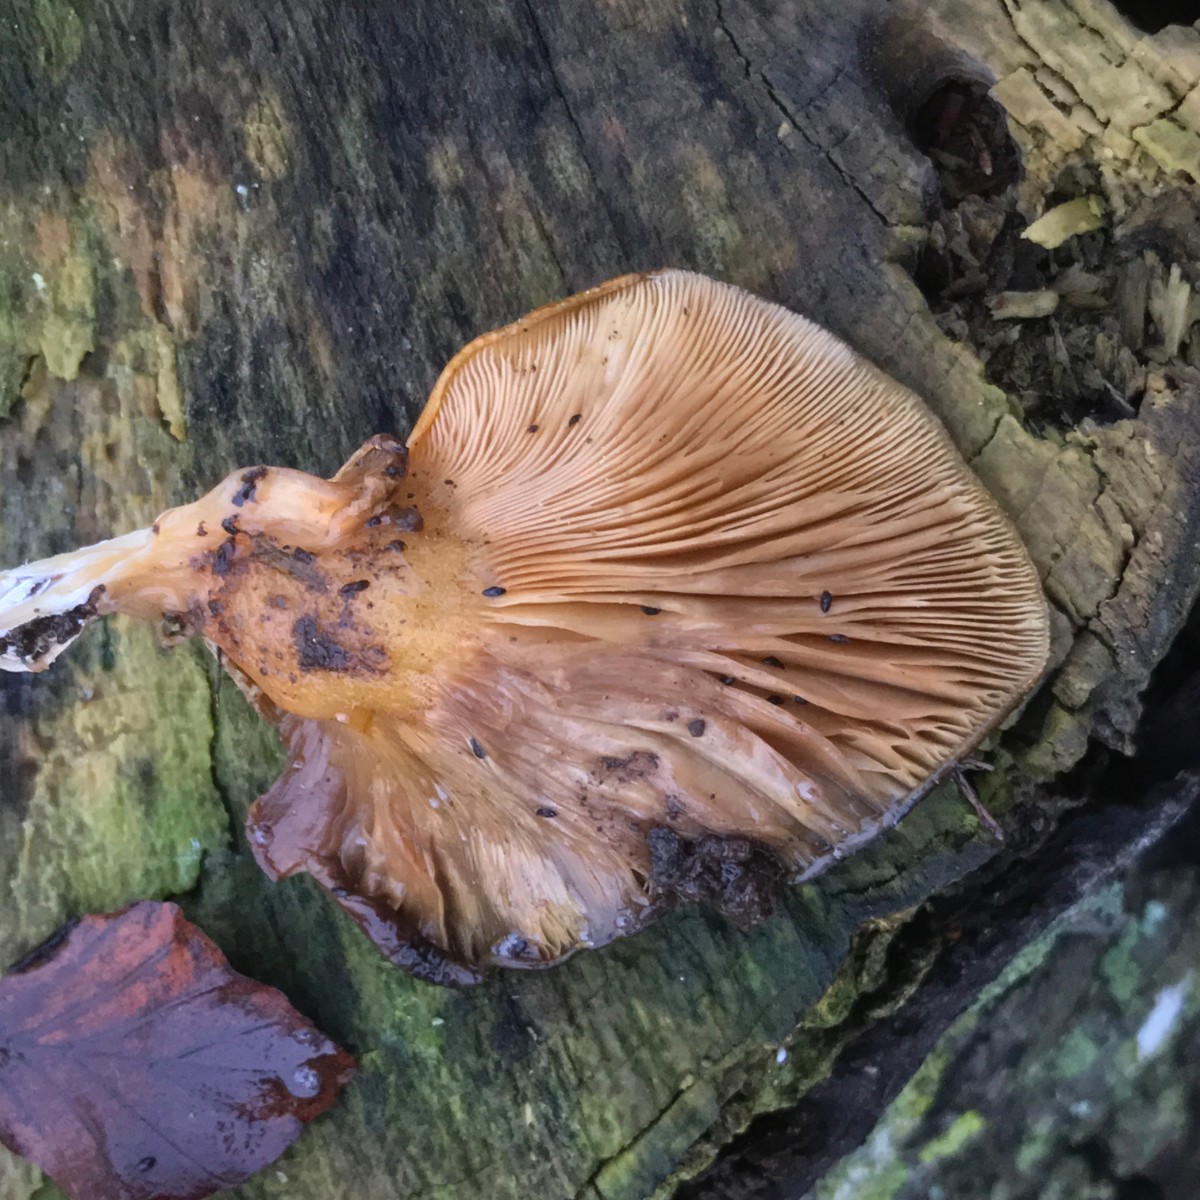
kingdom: Fungi
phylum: Basidiomycota
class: Agaricomycetes
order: Agaricales
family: Sarcomyxaceae
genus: Sarcomyxa
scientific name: Sarcomyxa serotina
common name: gummihat
